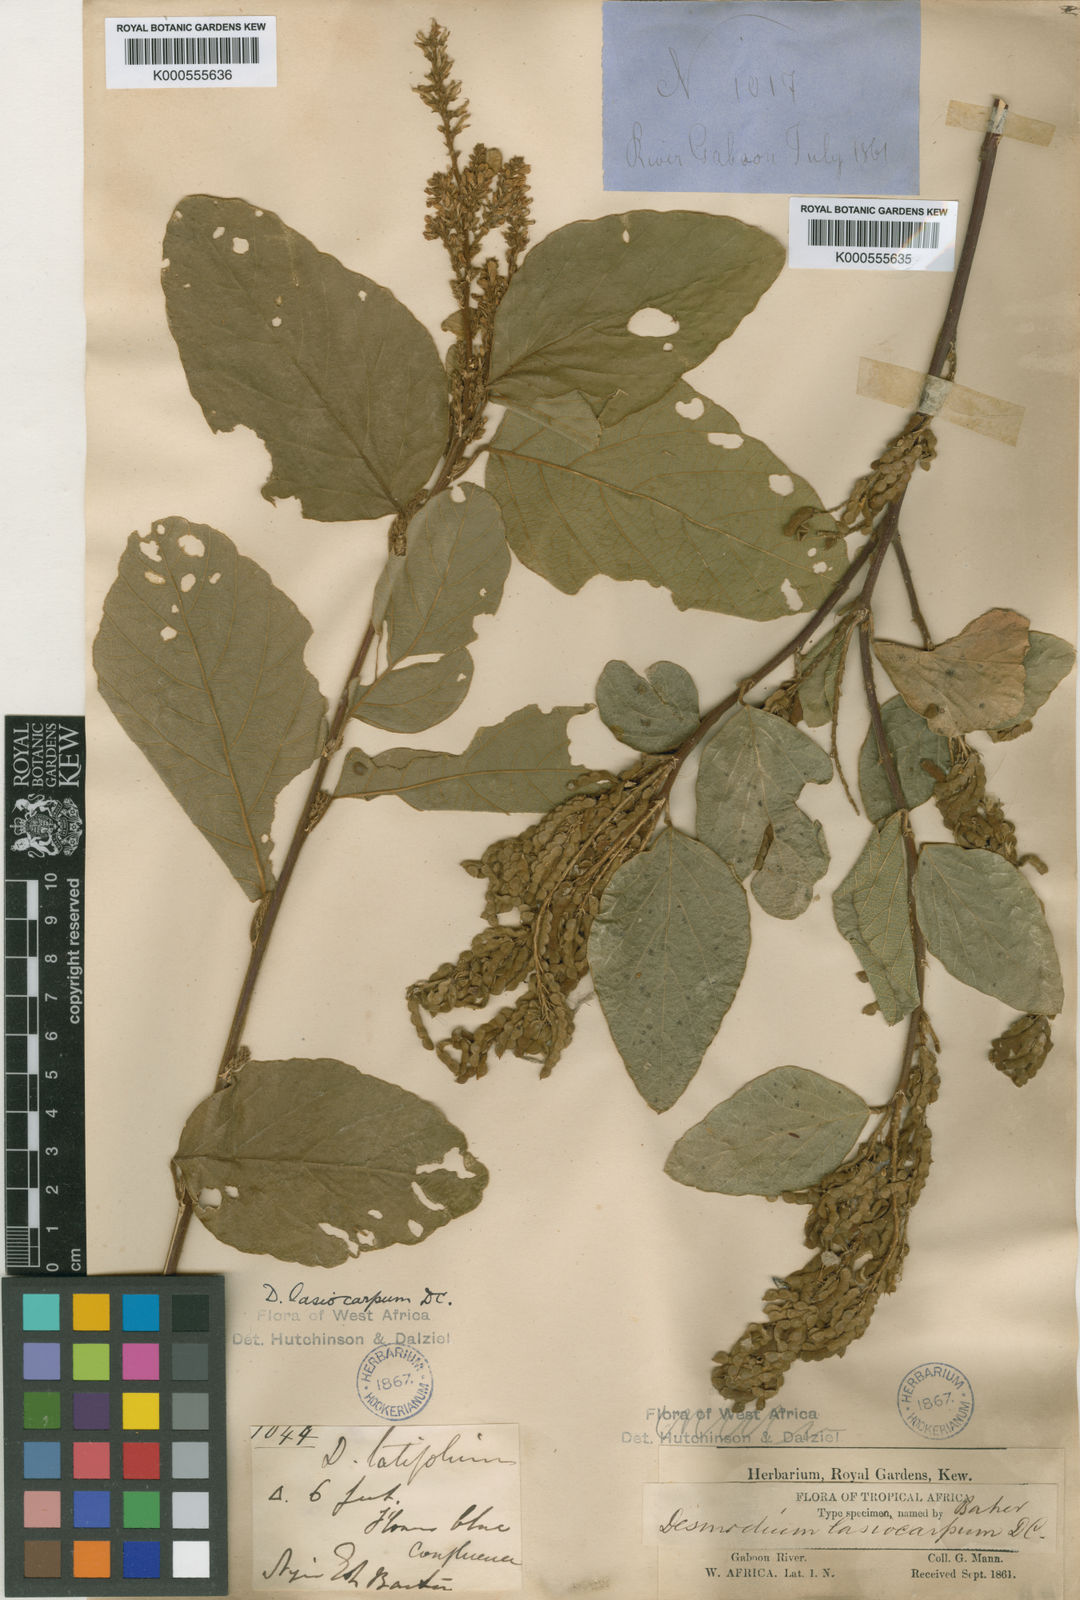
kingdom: Plantae
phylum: Tracheophyta
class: Magnoliopsida
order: Fabales
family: Fabaceae
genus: Polhillides
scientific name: Polhillides velutina
